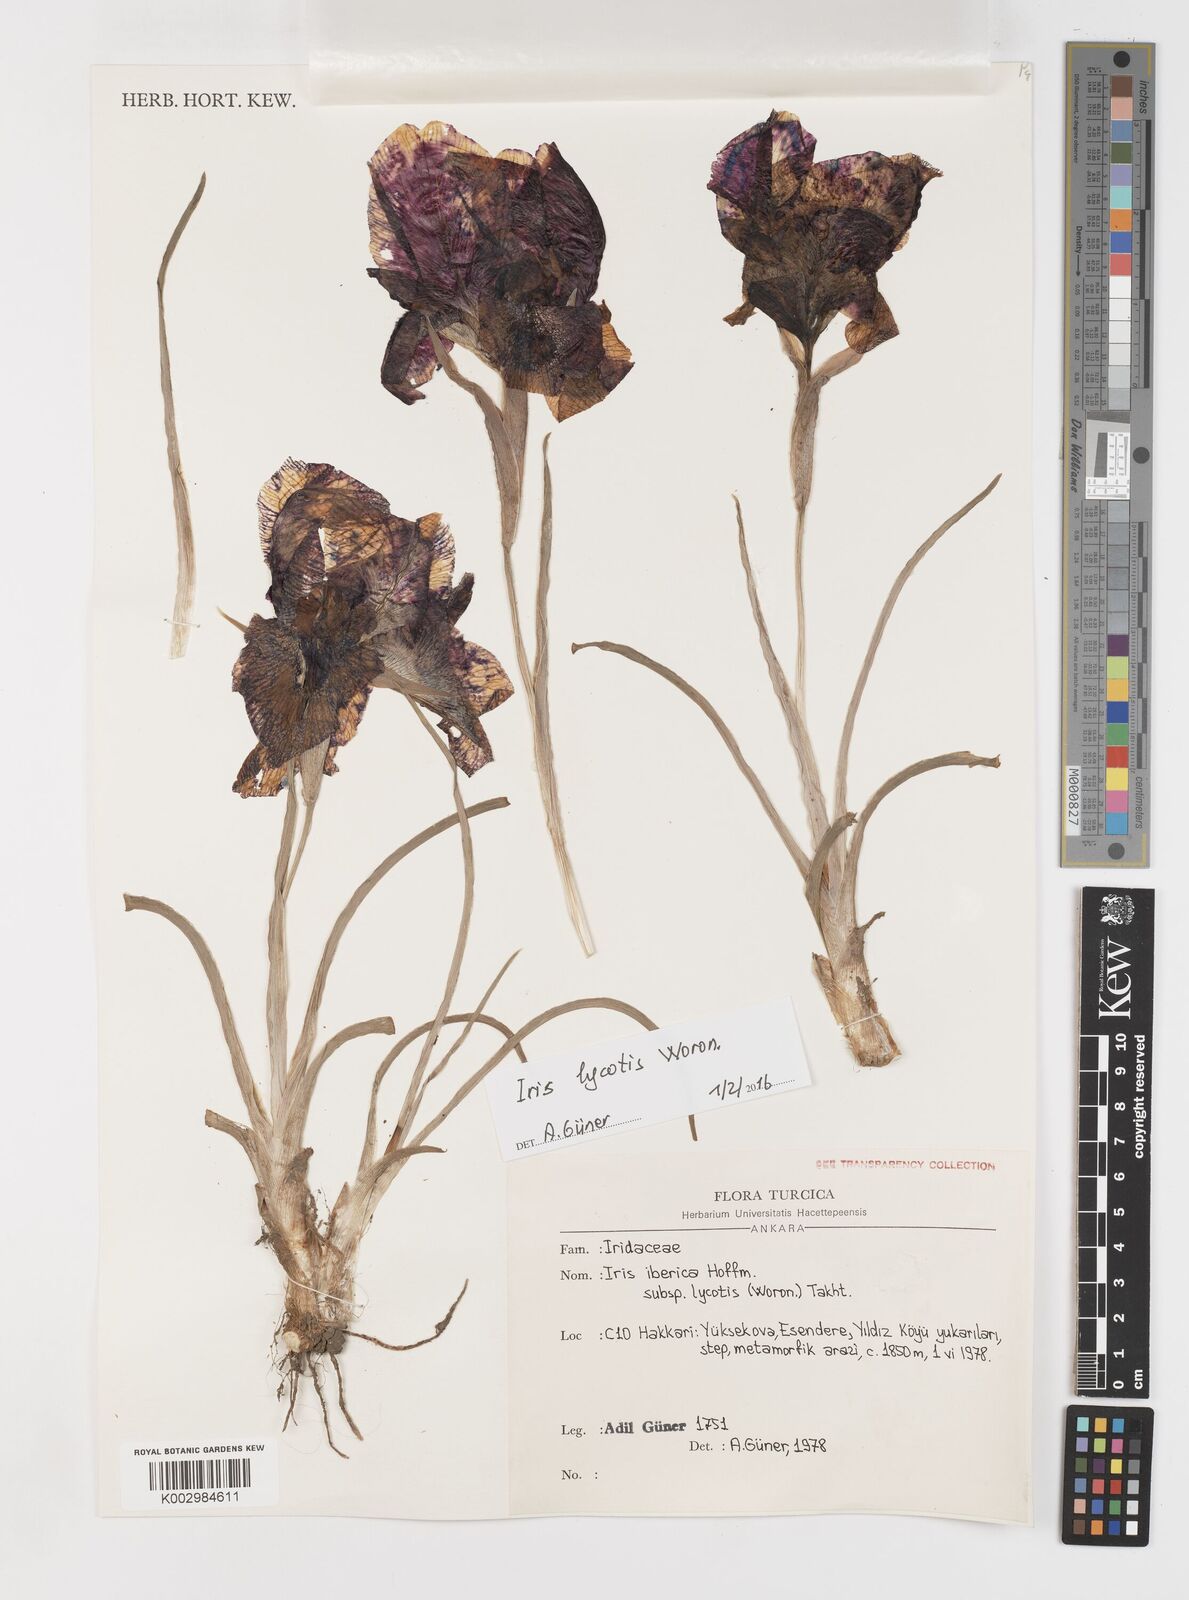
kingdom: Plantae
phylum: Tracheophyta
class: Liliopsida
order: Asparagales
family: Iridaceae
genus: Iris
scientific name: Iris lycotis
